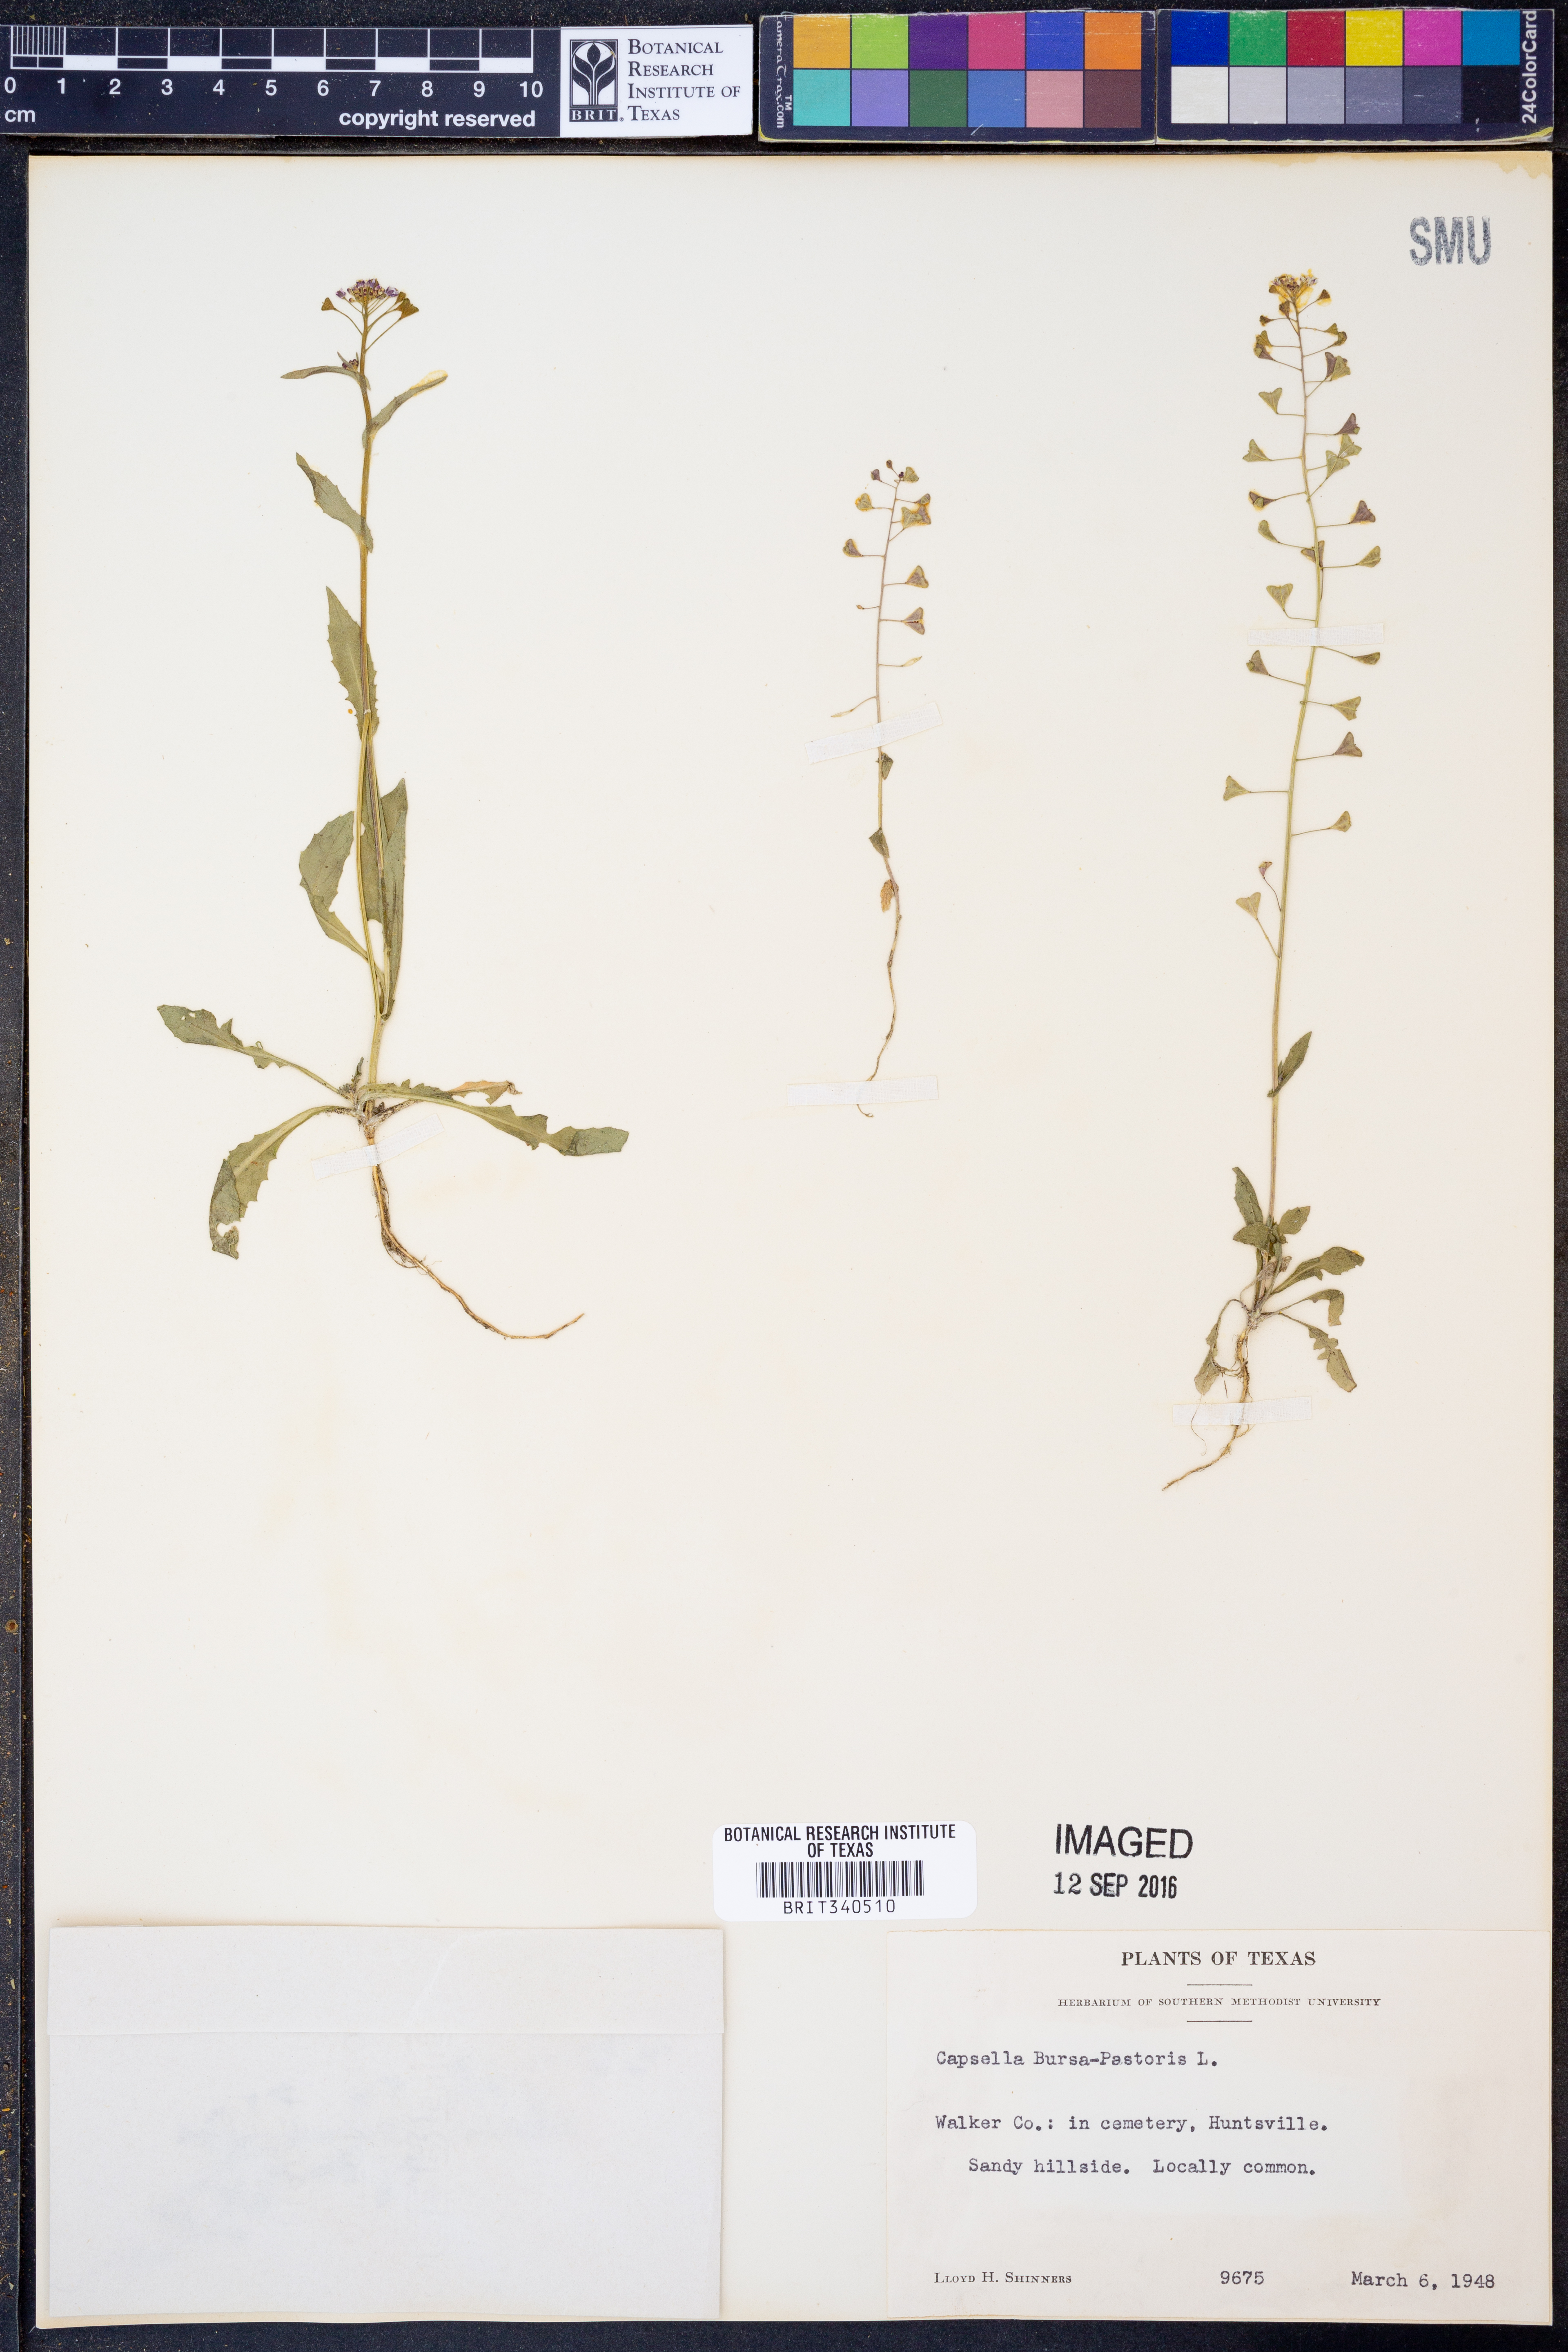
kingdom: Plantae
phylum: Tracheophyta
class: Magnoliopsida
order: Brassicales
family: Brassicaceae
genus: Capsella
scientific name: Capsella bursa-pastoris
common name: Shepherd's purse
